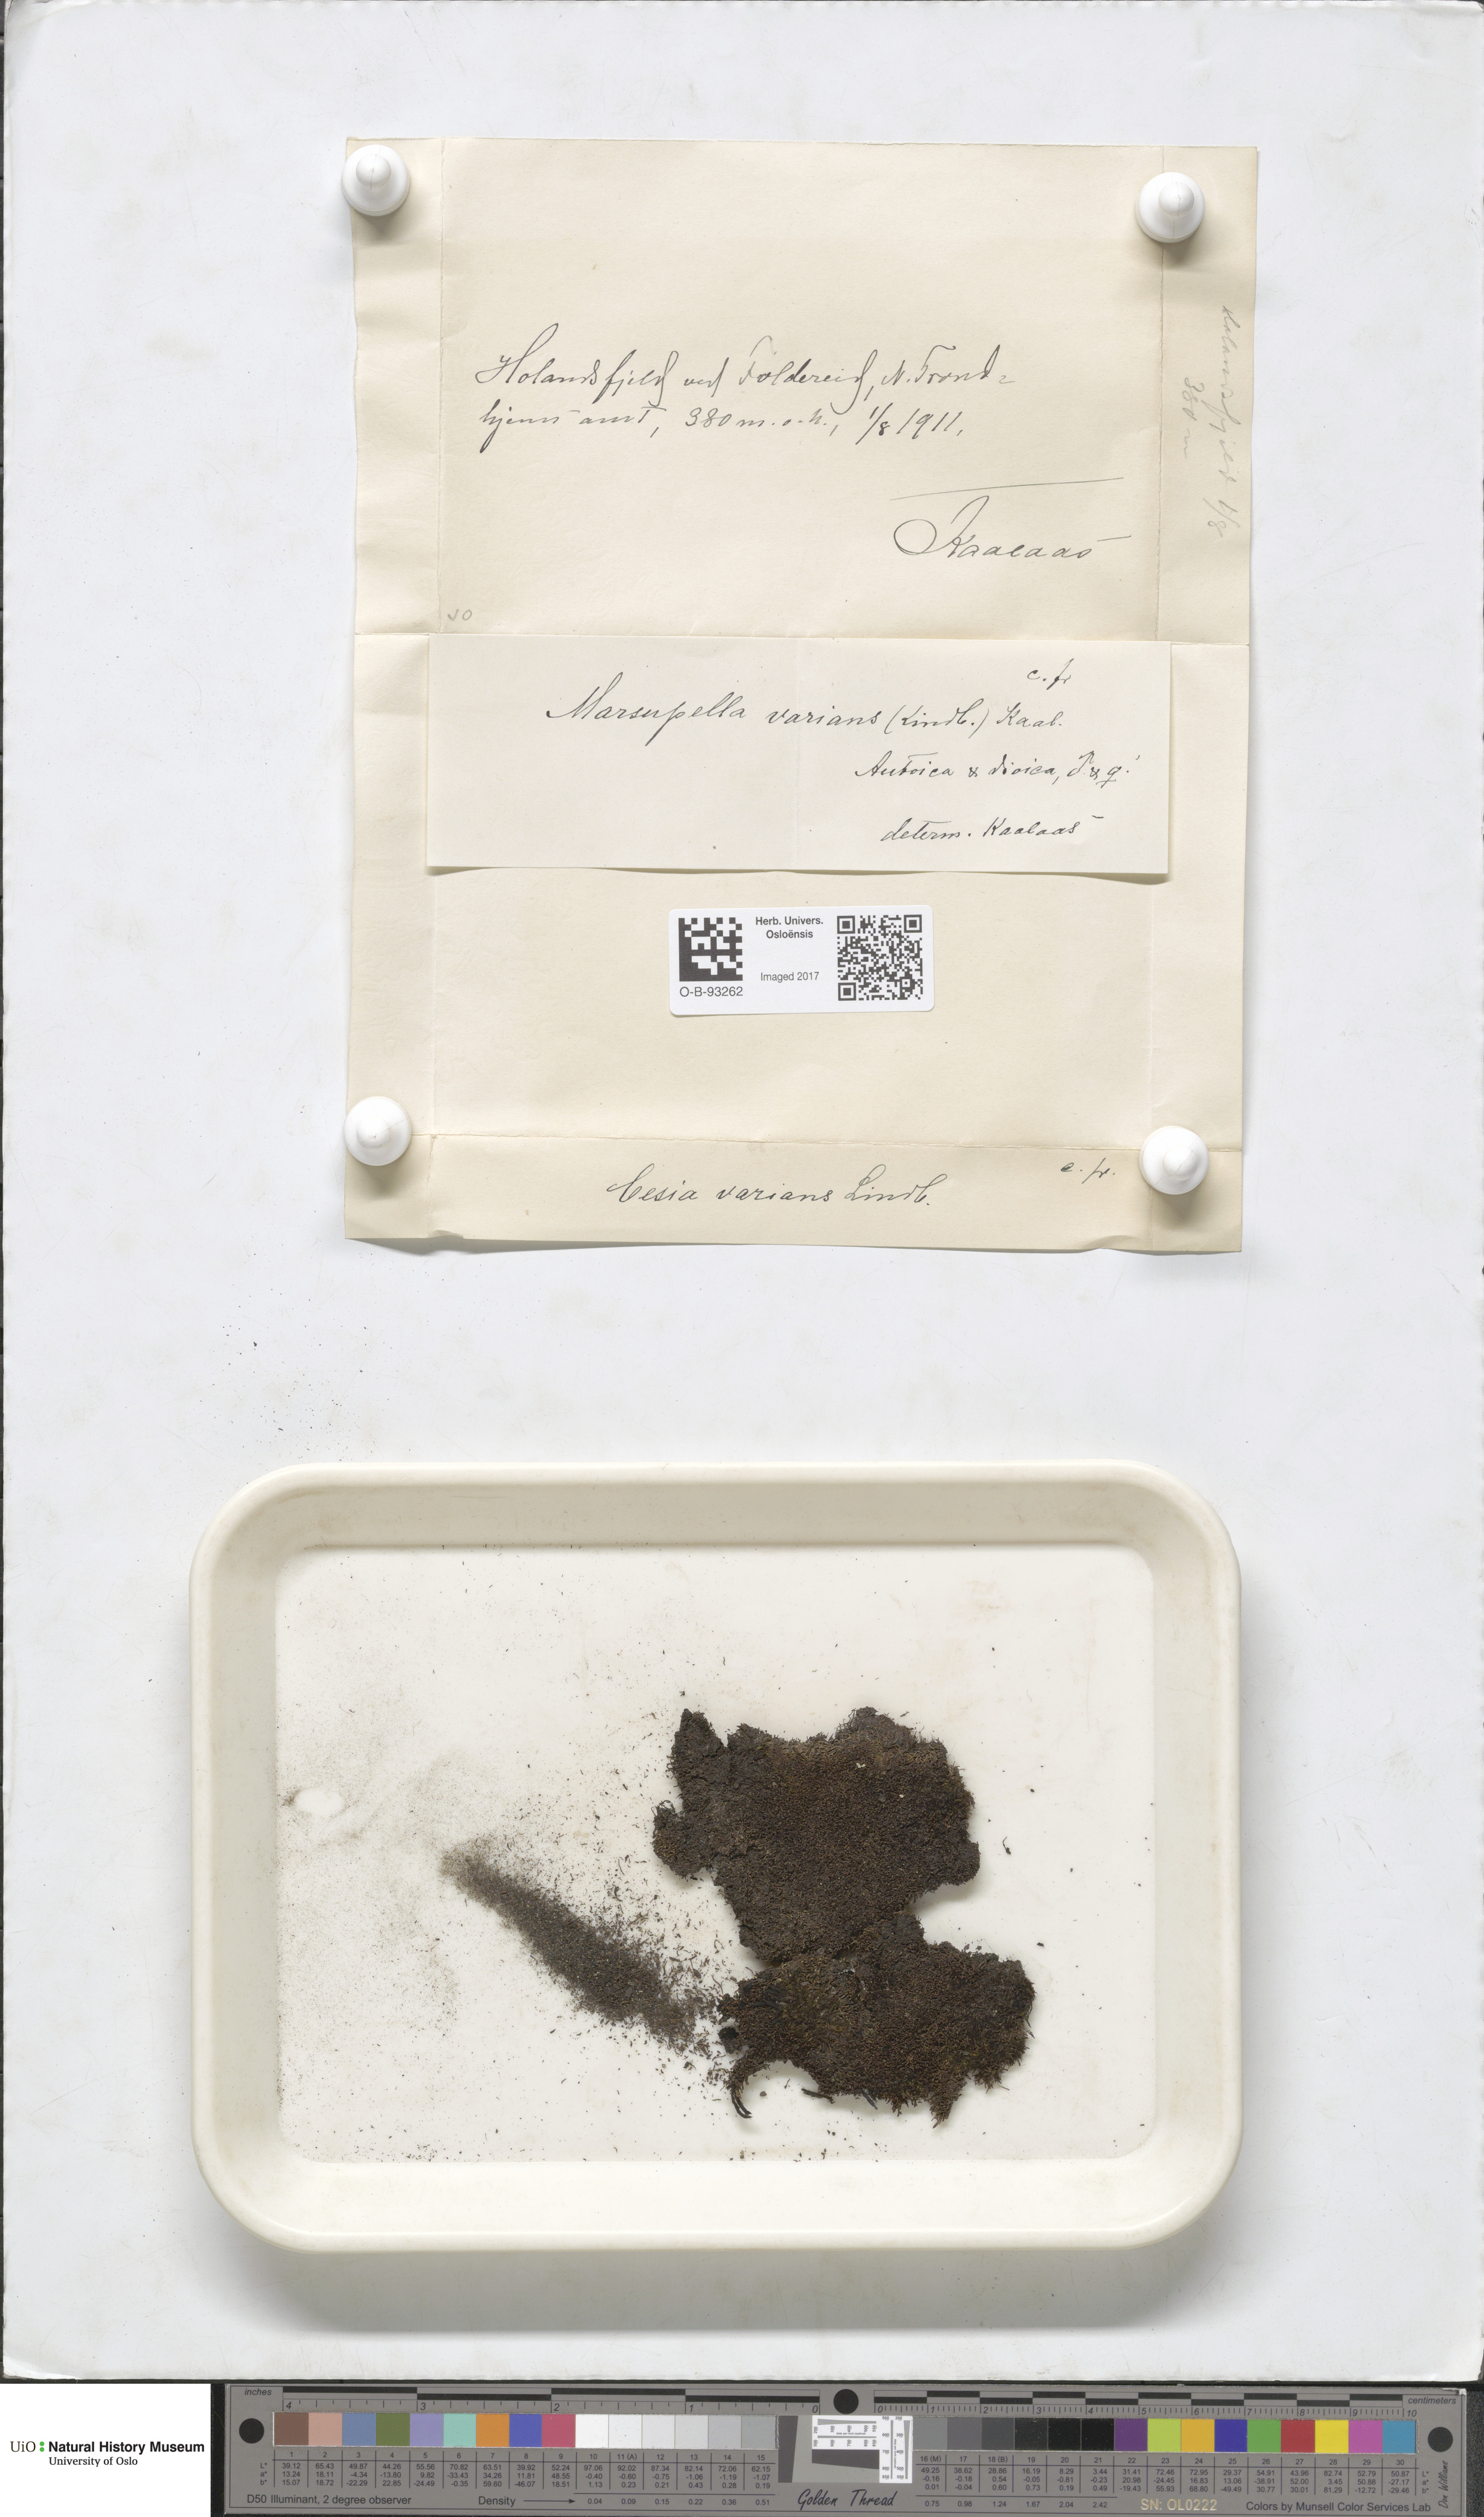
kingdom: Plantae
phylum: Marchantiophyta
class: Jungermanniopsida
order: Jungermanniales
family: Gymnomitriaceae
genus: Gymnomitrion
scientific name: Gymnomitrion brevissimum
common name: Snow rustwort
